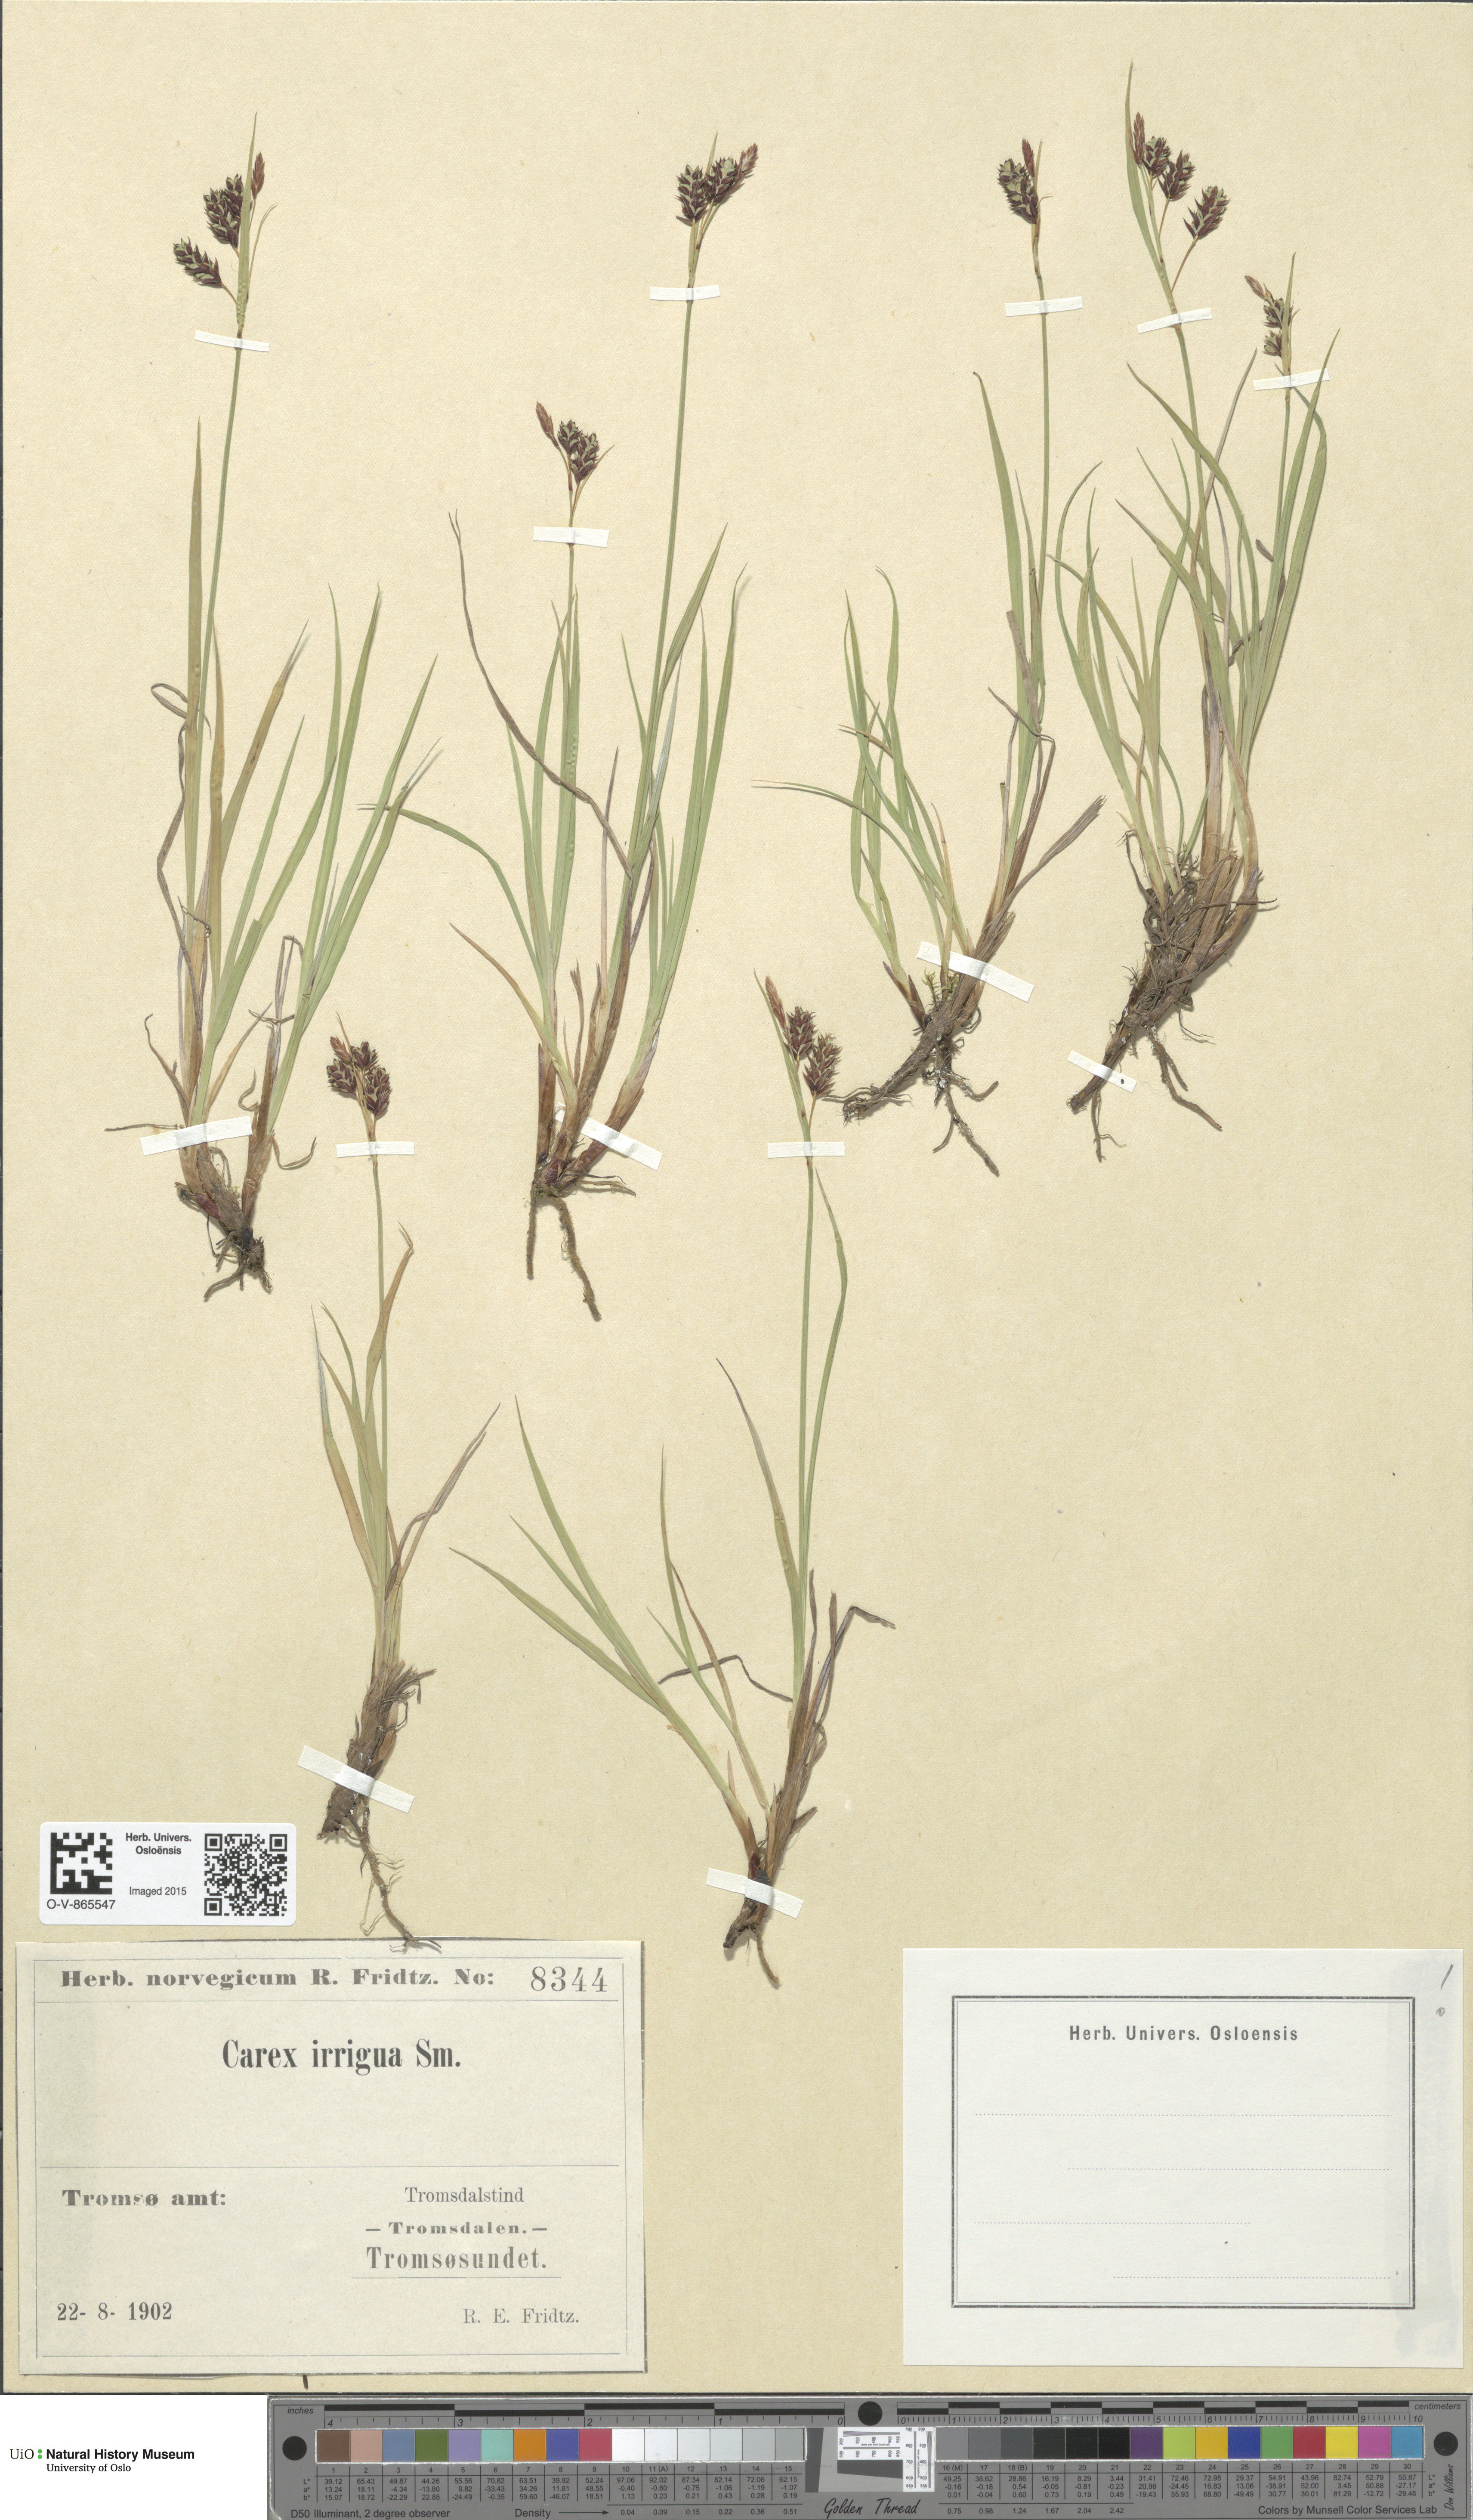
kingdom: Plantae
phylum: Tracheophyta
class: Liliopsida
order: Poales
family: Cyperaceae
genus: Carex
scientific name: Carex magellanica
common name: Bog sedge
